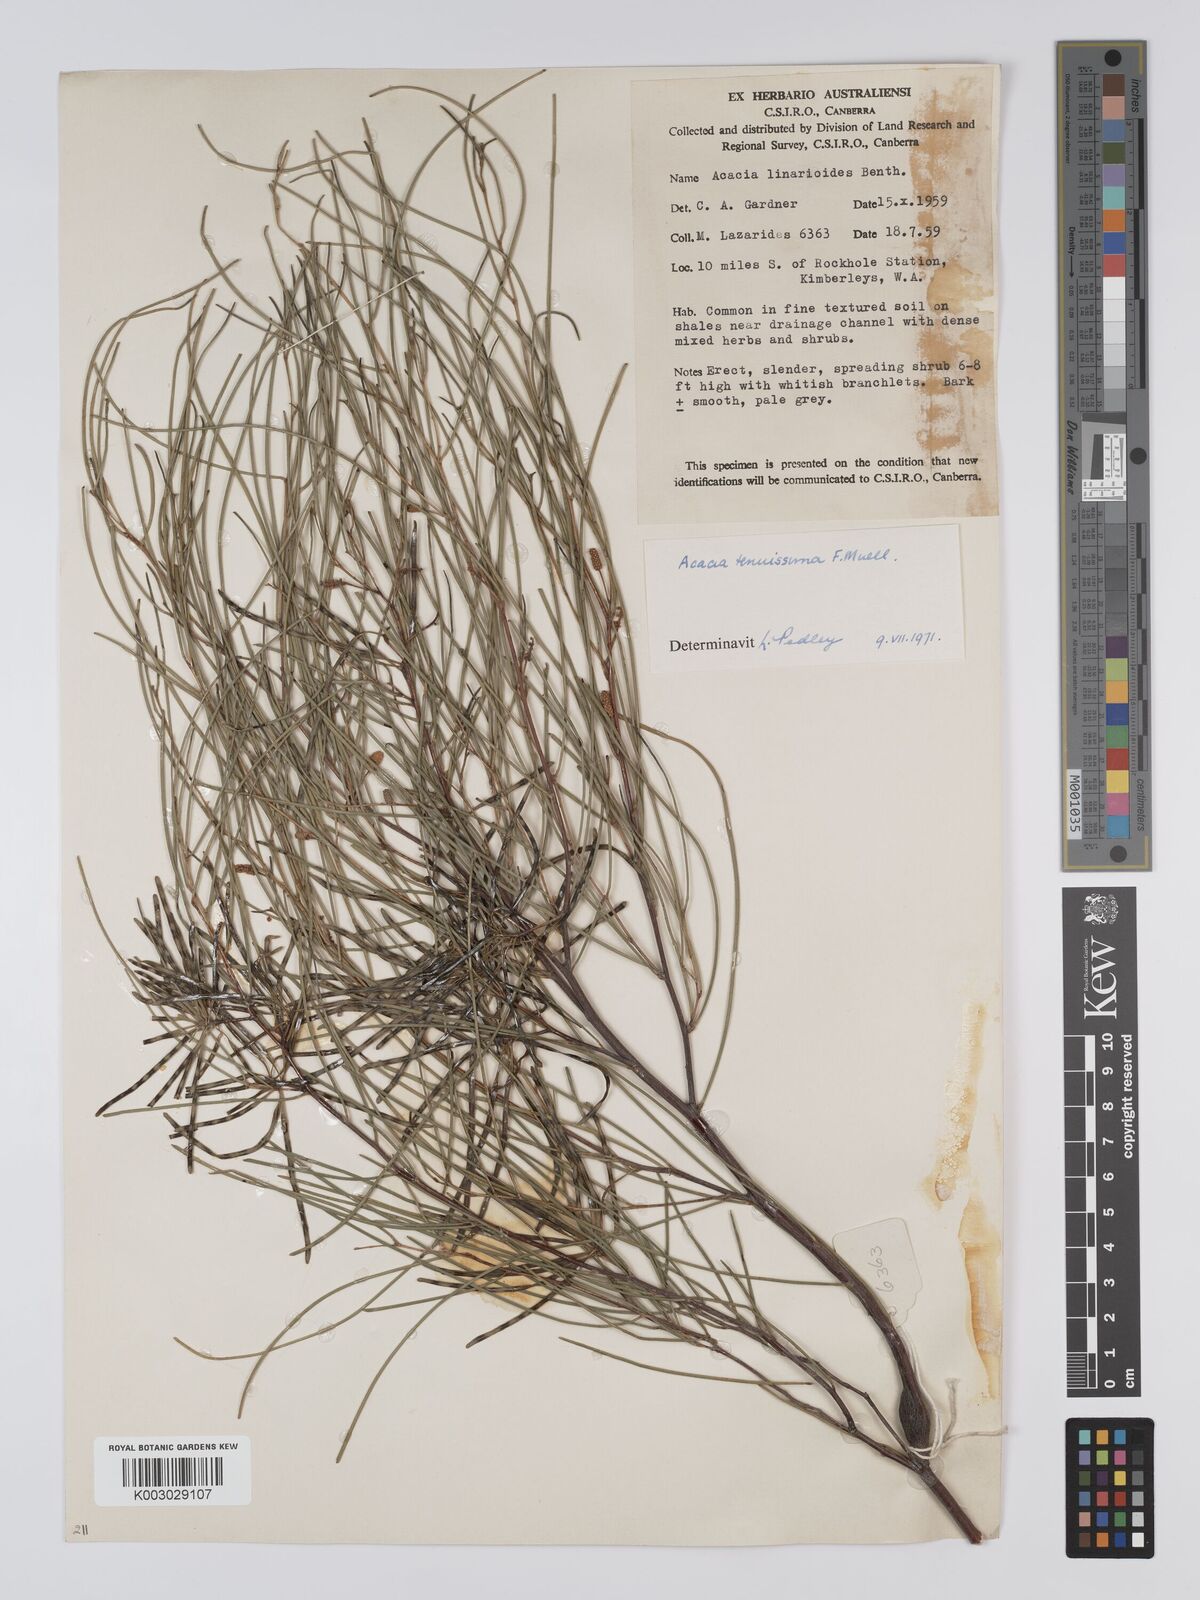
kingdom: Plantae
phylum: Tracheophyta
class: Magnoliopsida
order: Fabales
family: Fabaceae
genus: Acacia
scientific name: Acacia tenuissima
